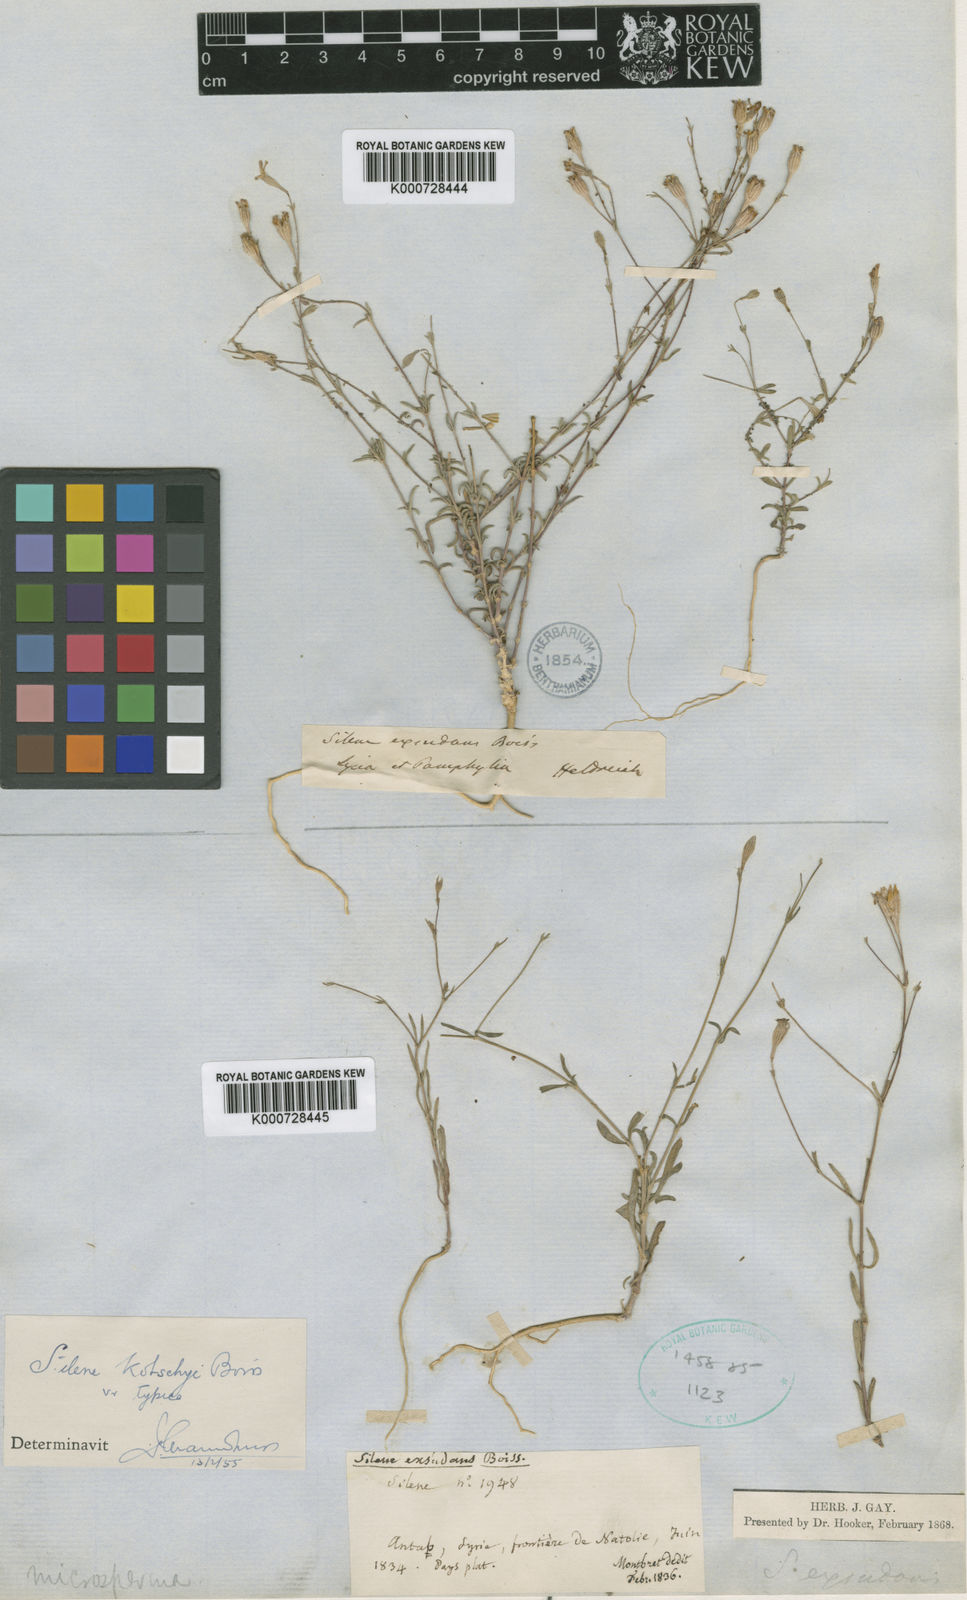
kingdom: Plantae
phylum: Tracheophyta
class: Magnoliopsida
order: Caryophyllales
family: Caryophyllaceae
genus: Silene
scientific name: Silene microsperma
